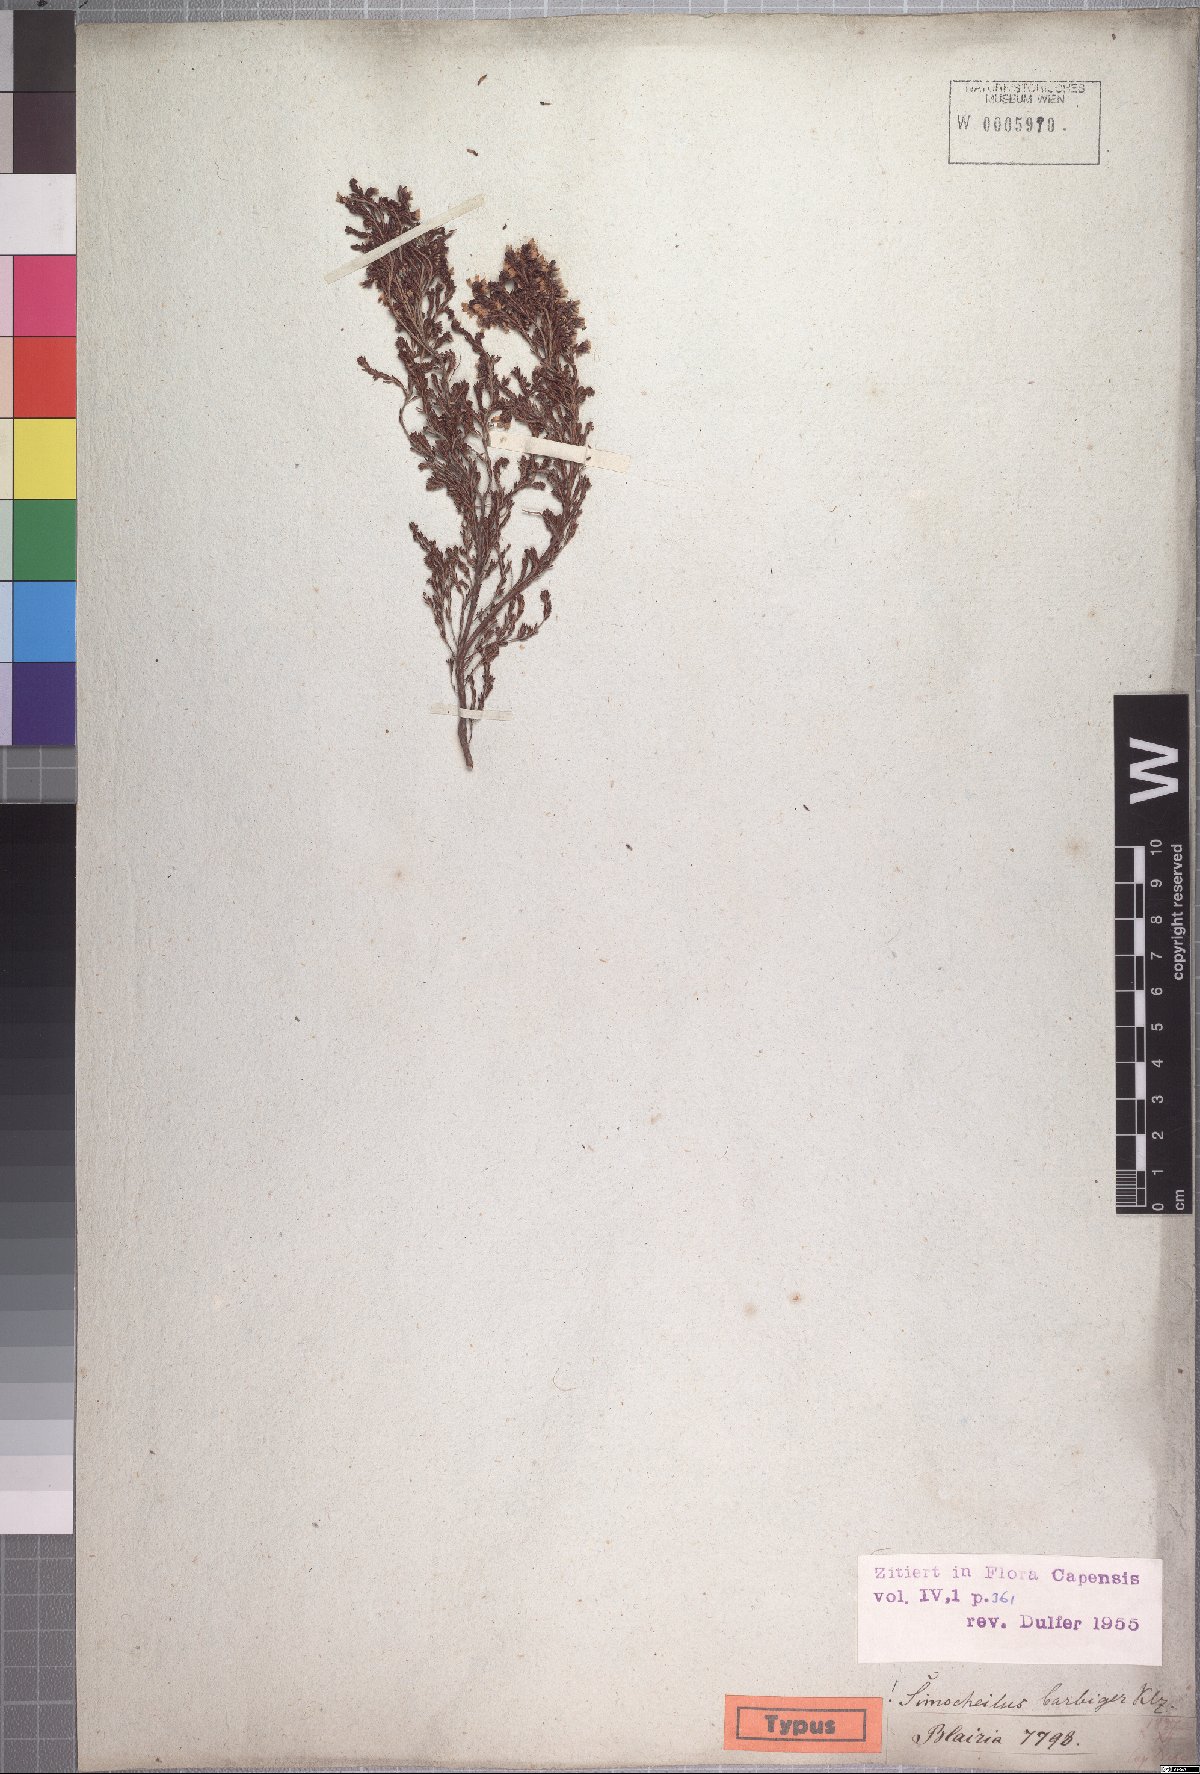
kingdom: Plantae
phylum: Tracheophyta
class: Magnoliopsida
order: Ericales
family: Ericaceae
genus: Erica
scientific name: Erica uberiflora
